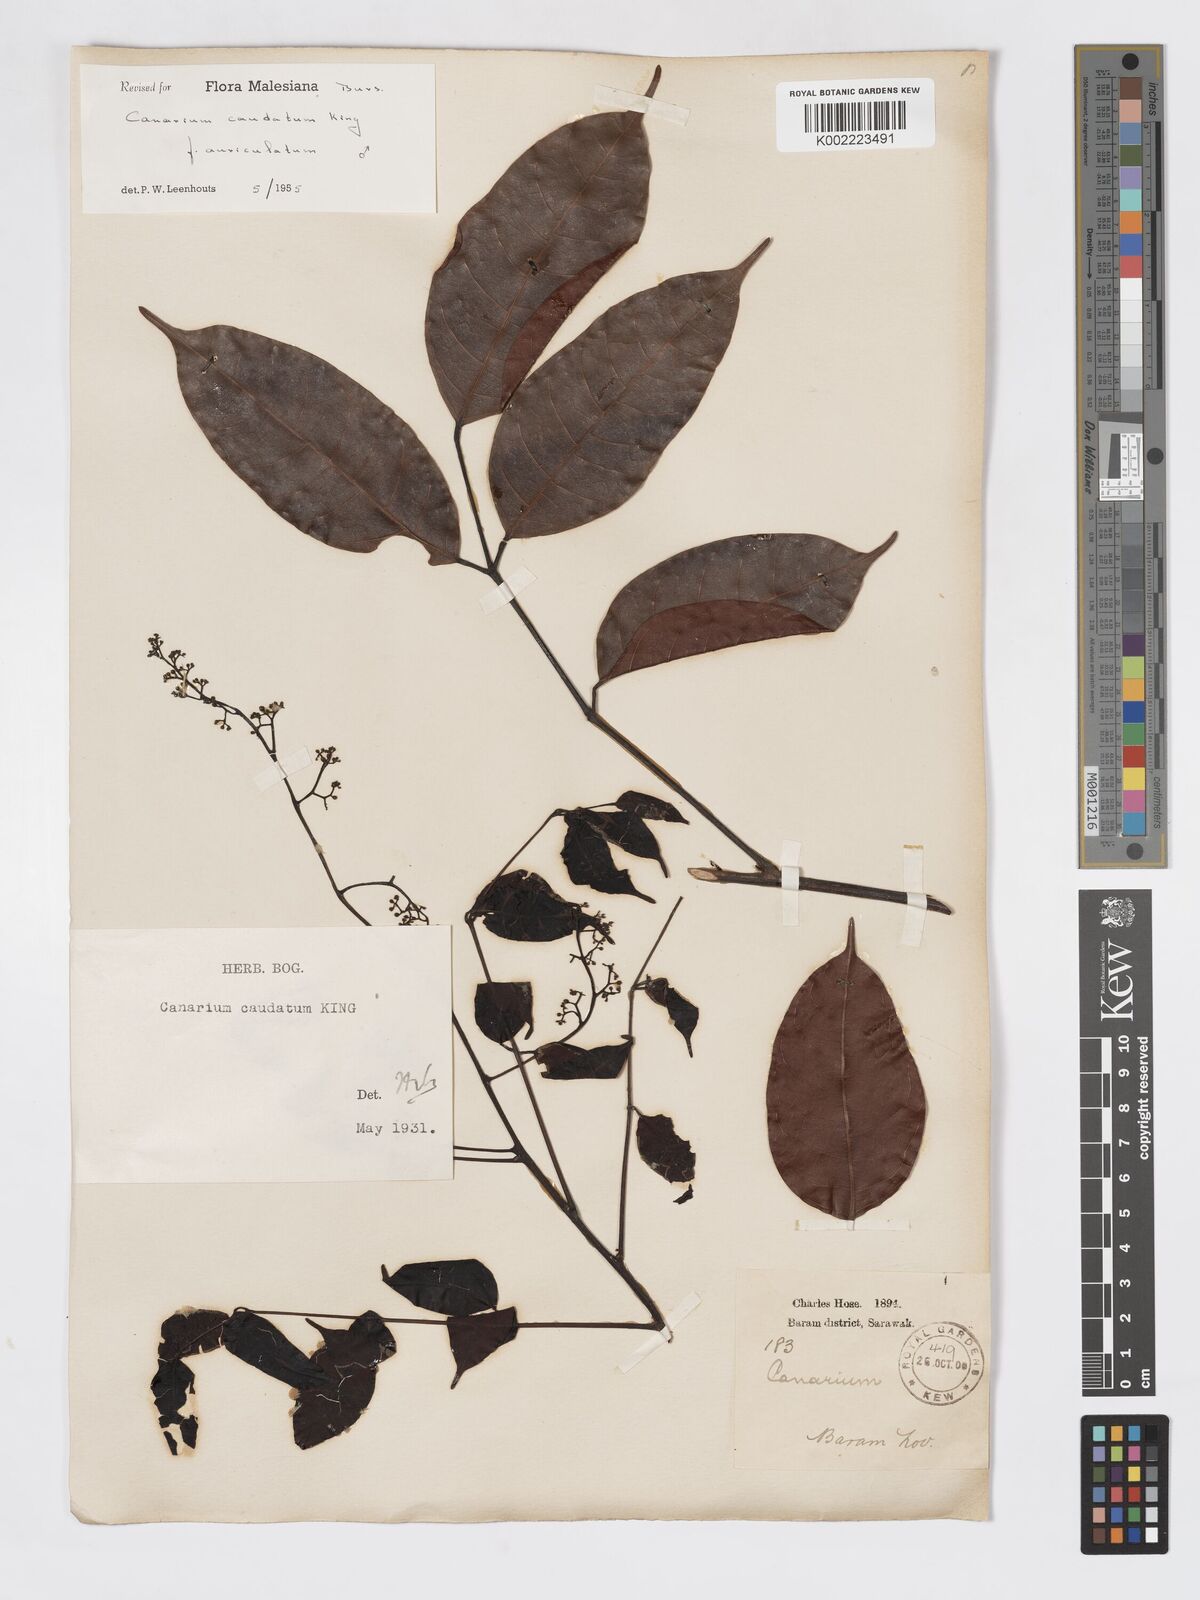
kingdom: Plantae
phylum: Tracheophyta
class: Magnoliopsida
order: Sapindales
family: Burseraceae
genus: Canarium
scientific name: Canarium caudatum
